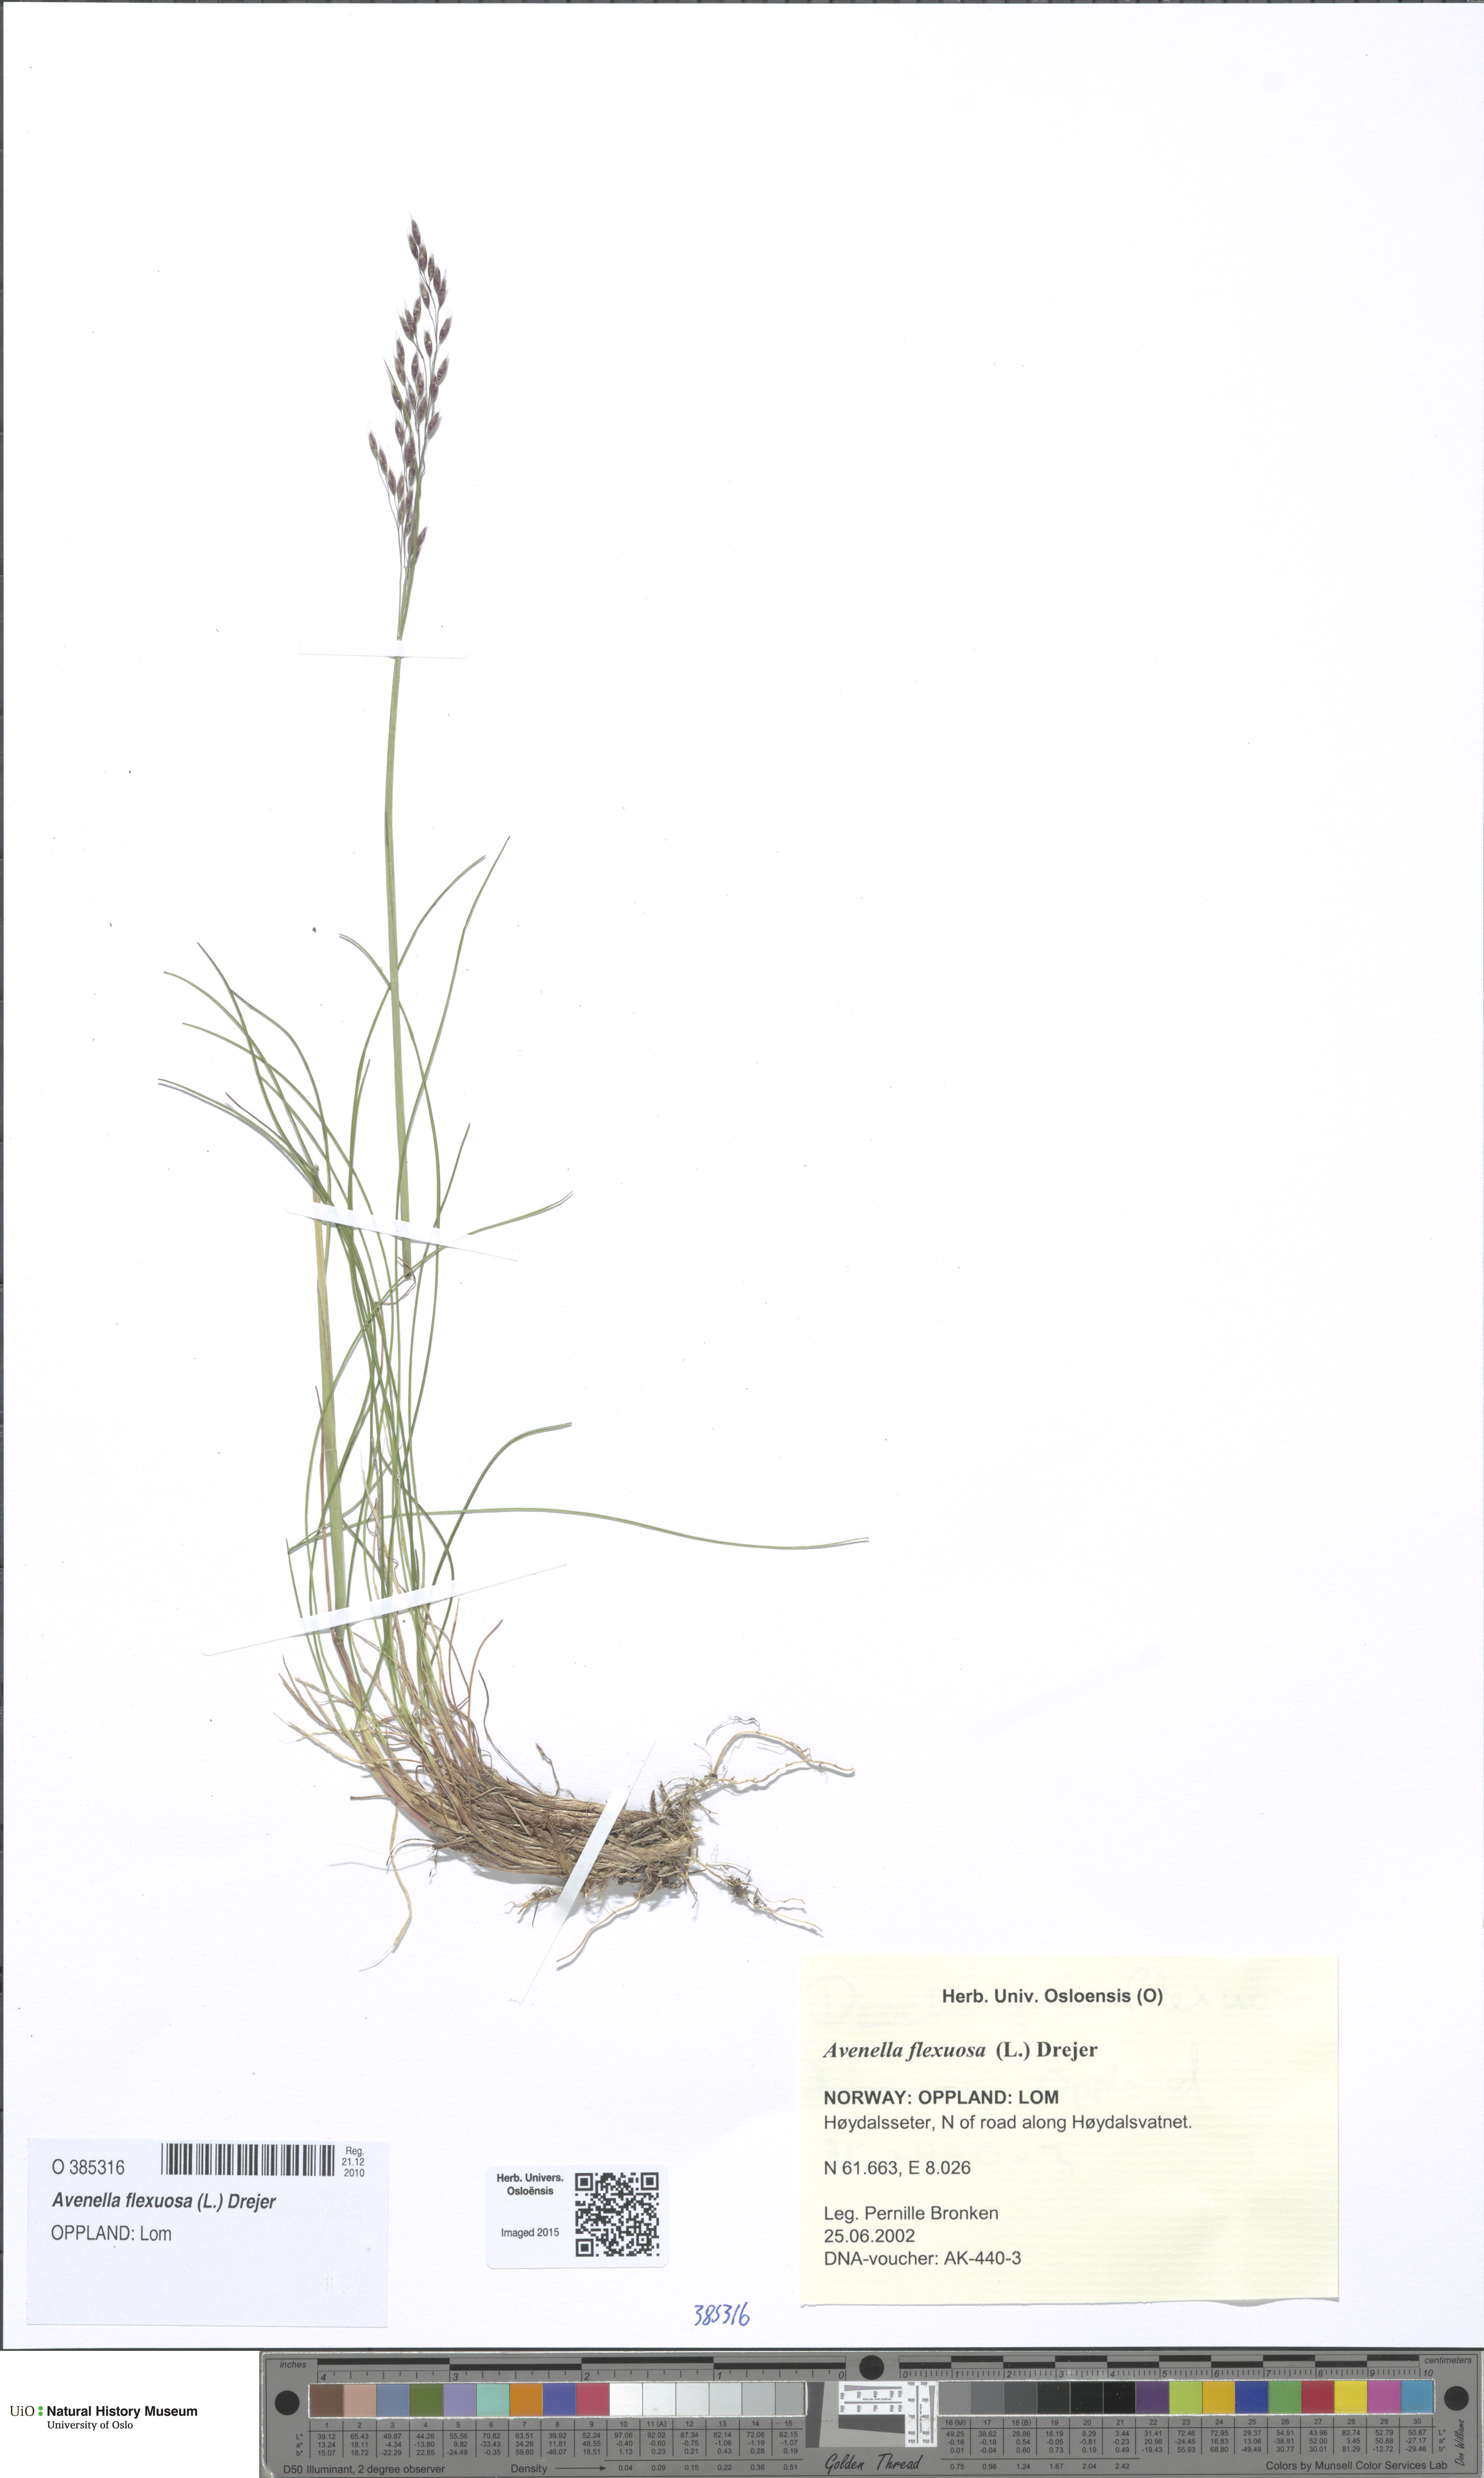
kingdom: Plantae
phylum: Tracheophyta
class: Liliopsida
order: Poales
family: Poaceae
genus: Avenella
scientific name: Avenella flexuosa
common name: Wavy hairgrass
